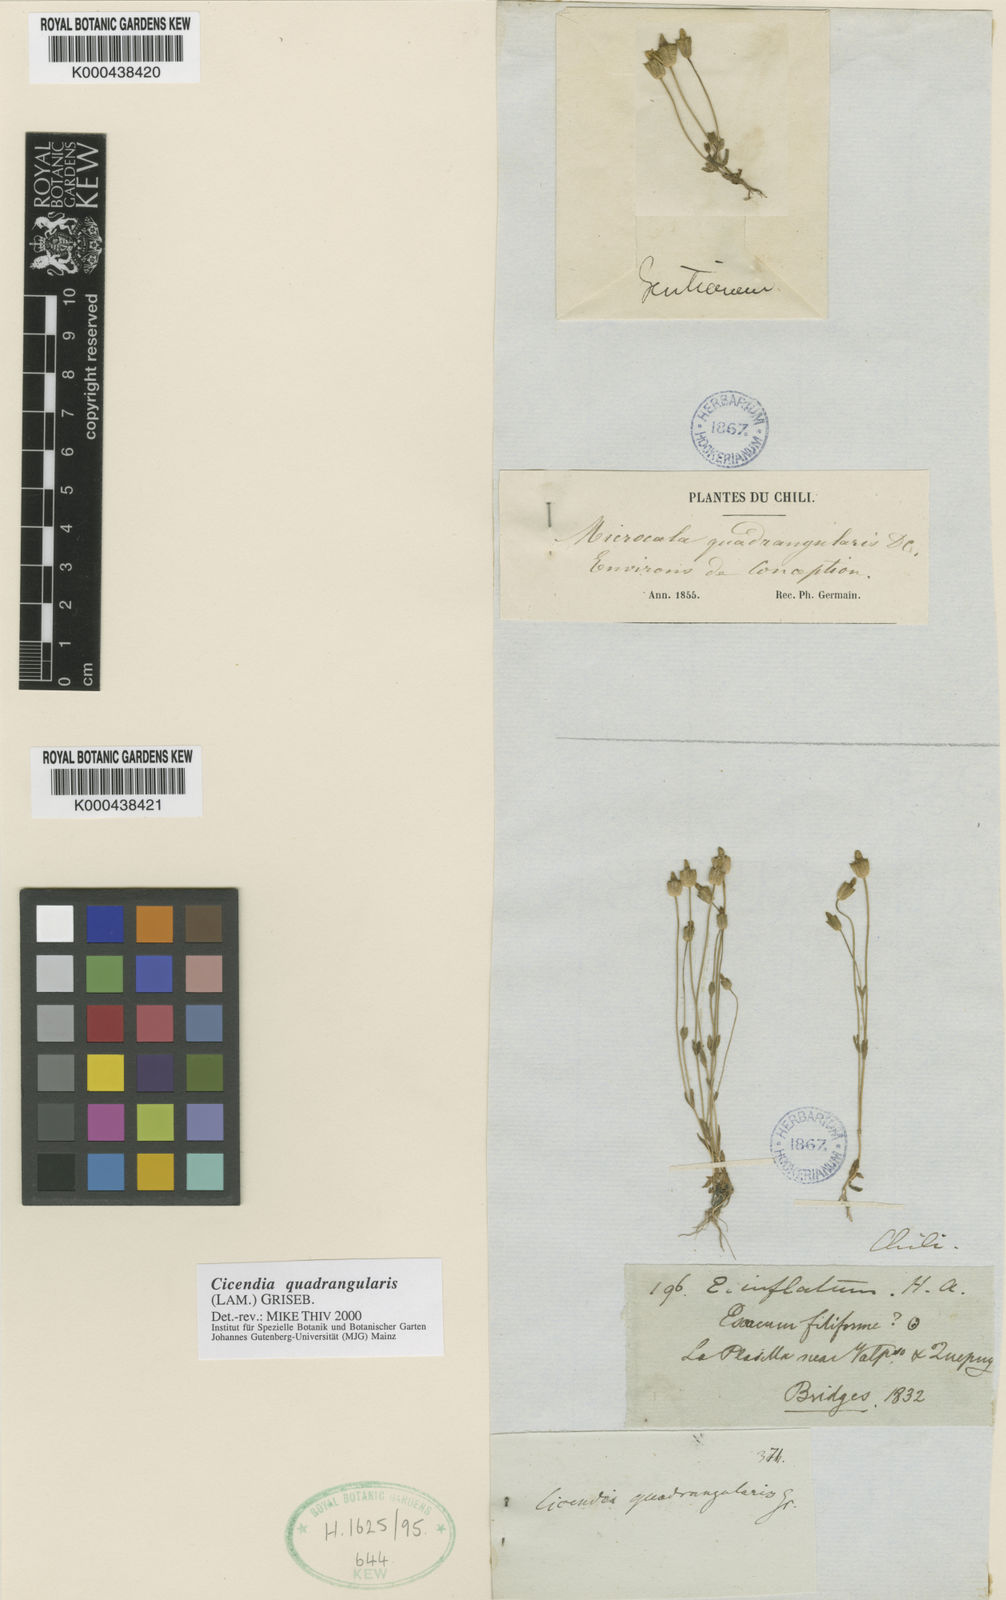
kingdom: Plantae
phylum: Tracheophyta
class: Magnoliopsida
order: Gentianales
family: Gentianaceae
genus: Microcala
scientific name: Microcala quadrangularis
